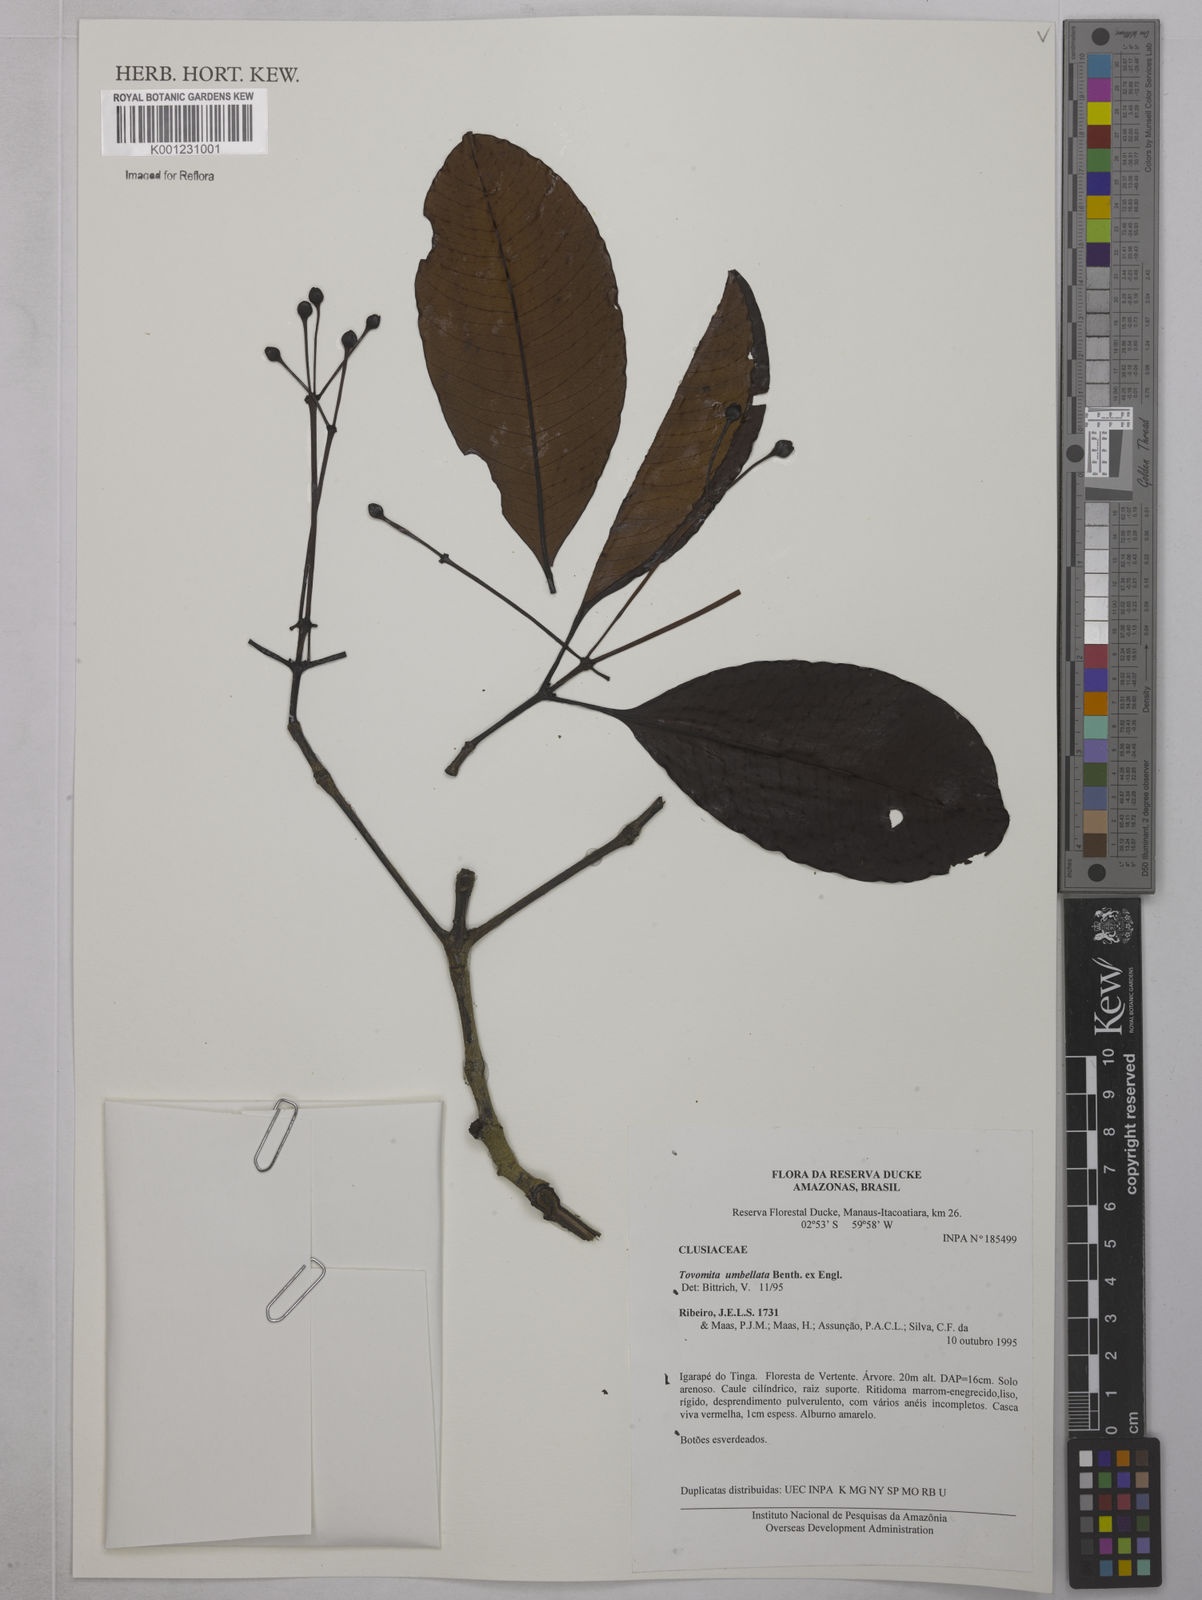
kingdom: Plantae
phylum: Tracheophyta
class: Magnoliopsida
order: Malpighiales
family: Clusiaceae
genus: Tovomita
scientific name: Tovomita umbellata
